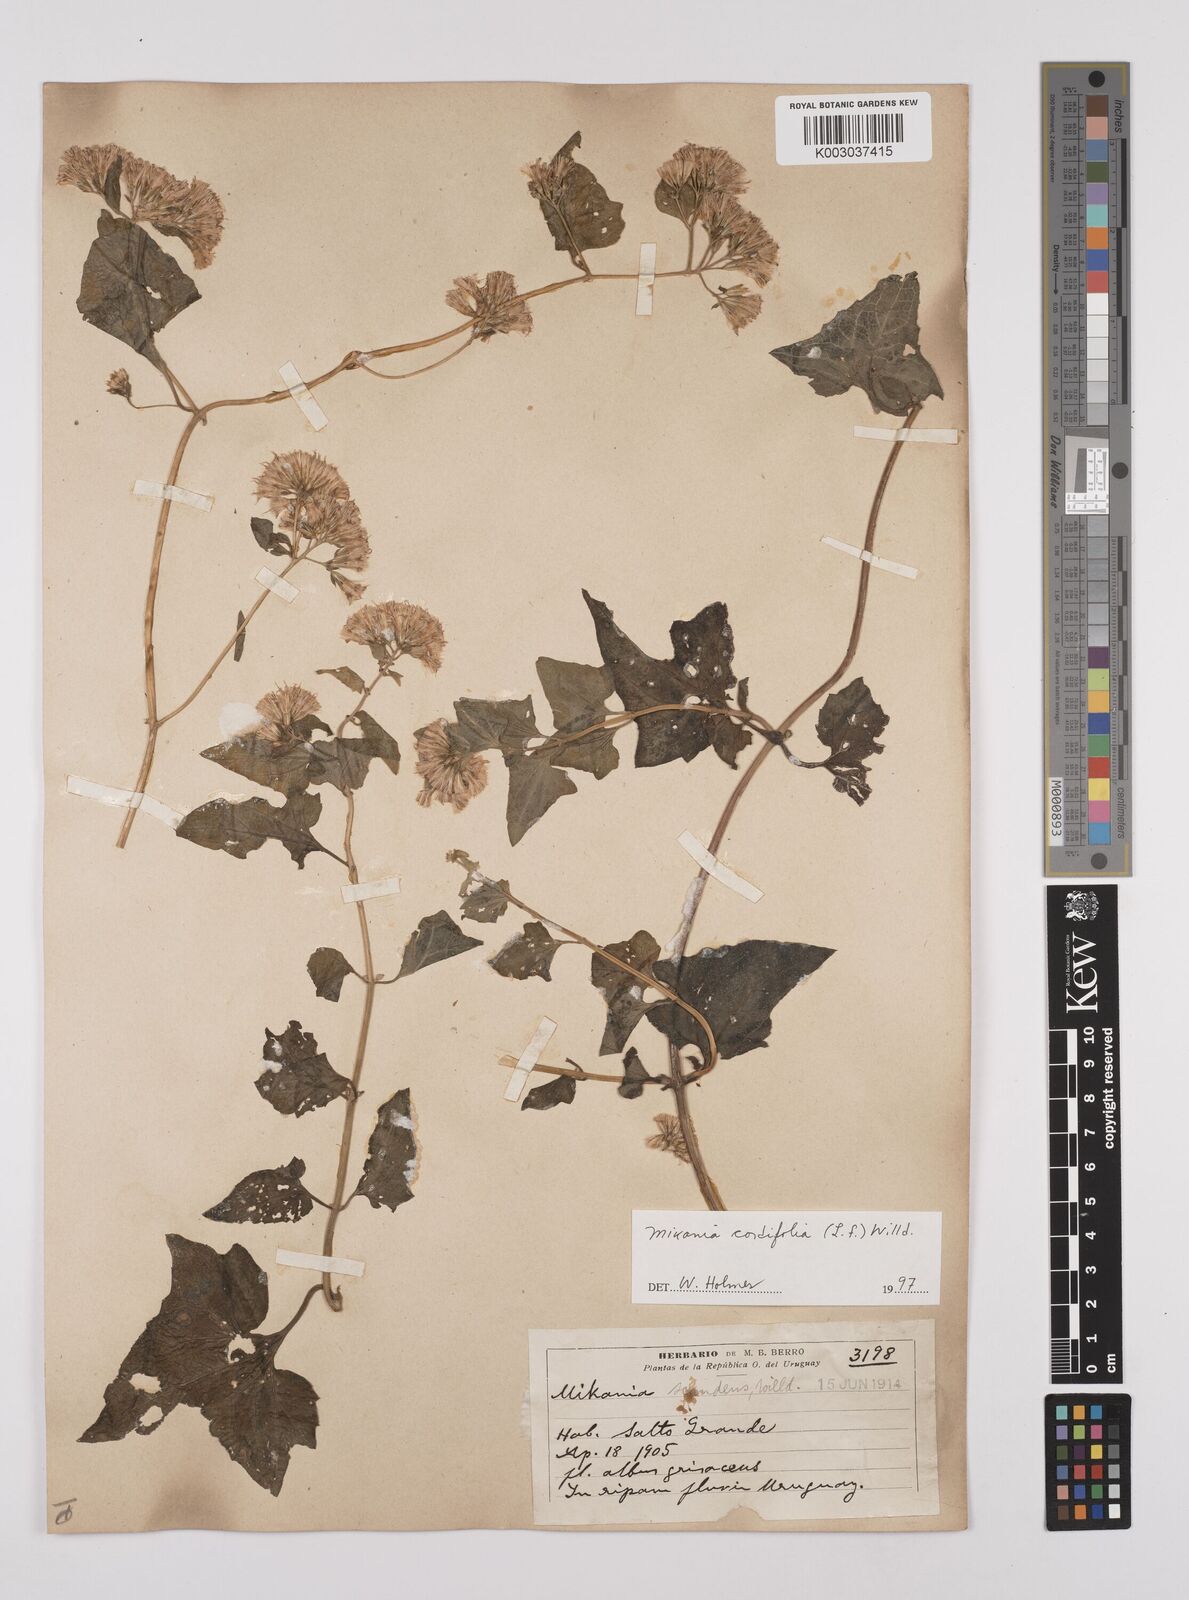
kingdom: Plantae
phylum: Tracheophyta
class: Magnoliopsida
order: Asterales
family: Asteraceae
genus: Mikania
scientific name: Mikania cordifolia
